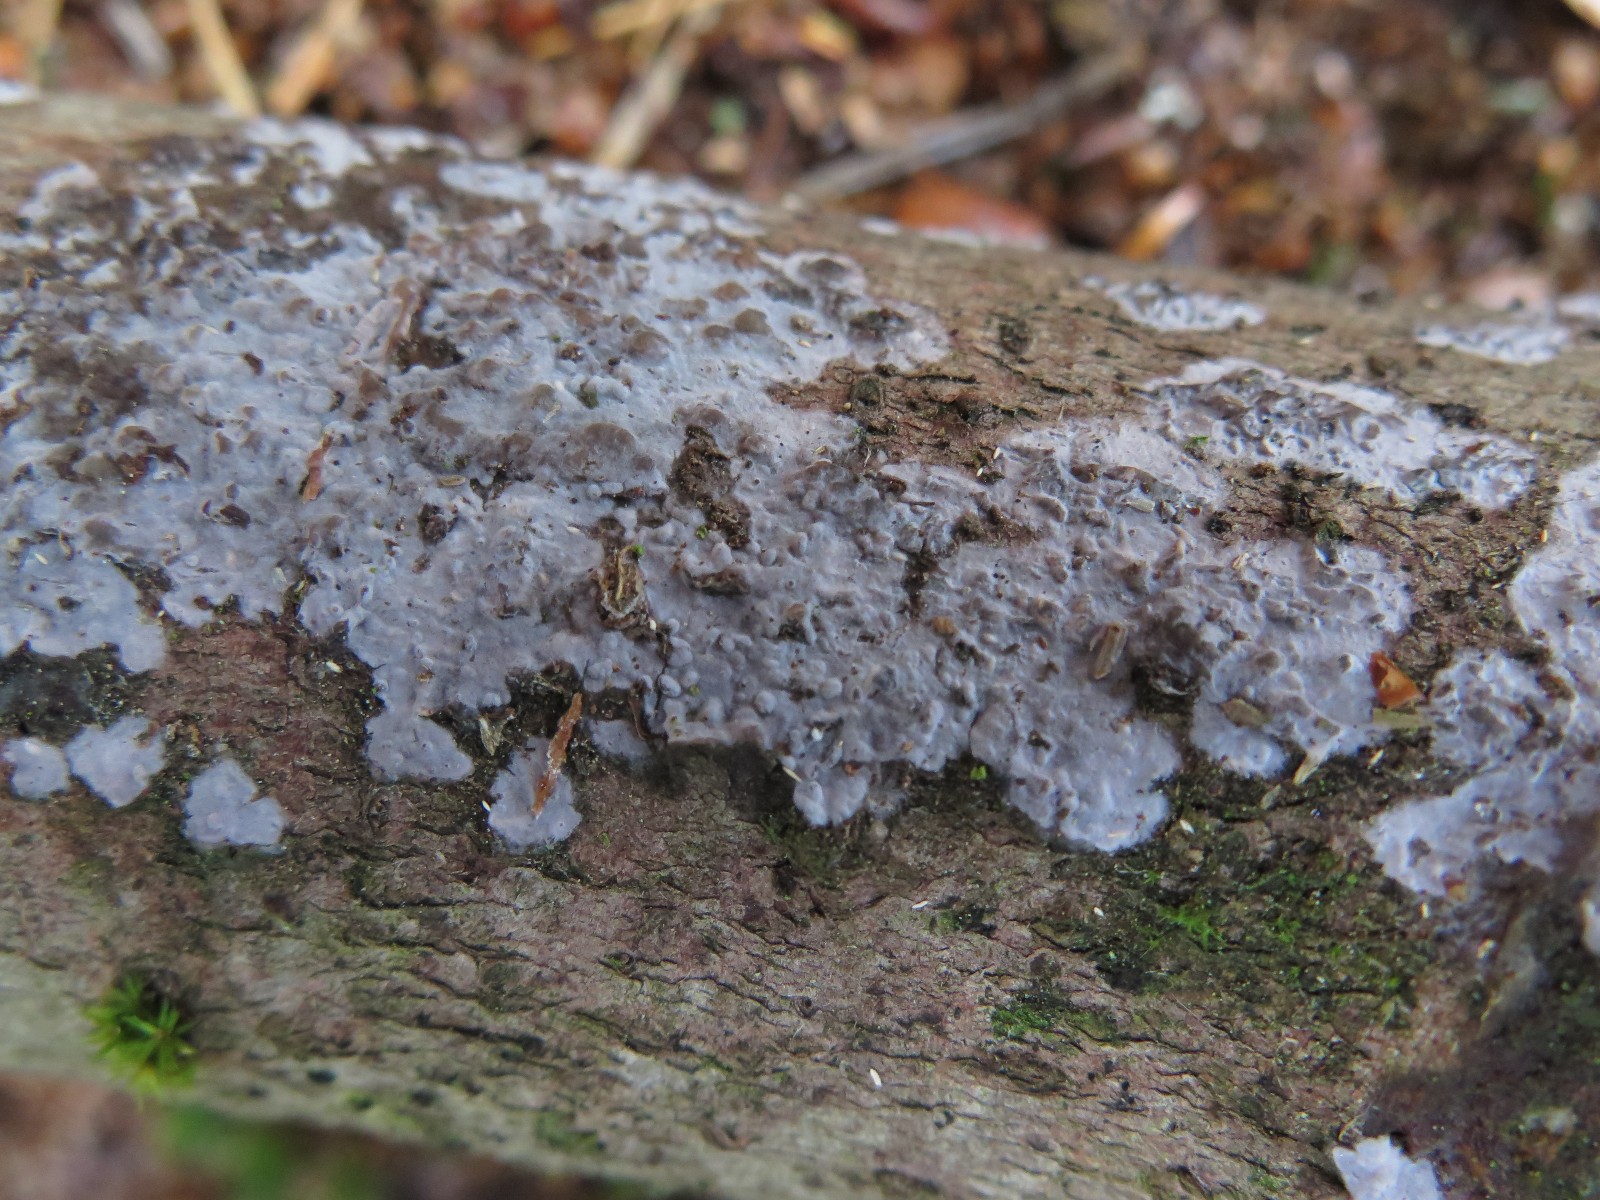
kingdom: Fungi
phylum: Basidiomycota
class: Agaricomycetes
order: Sebacinales
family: Sebacinaceae
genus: Sebacina
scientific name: Sebacina grisea
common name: blågrå bævrehinde
